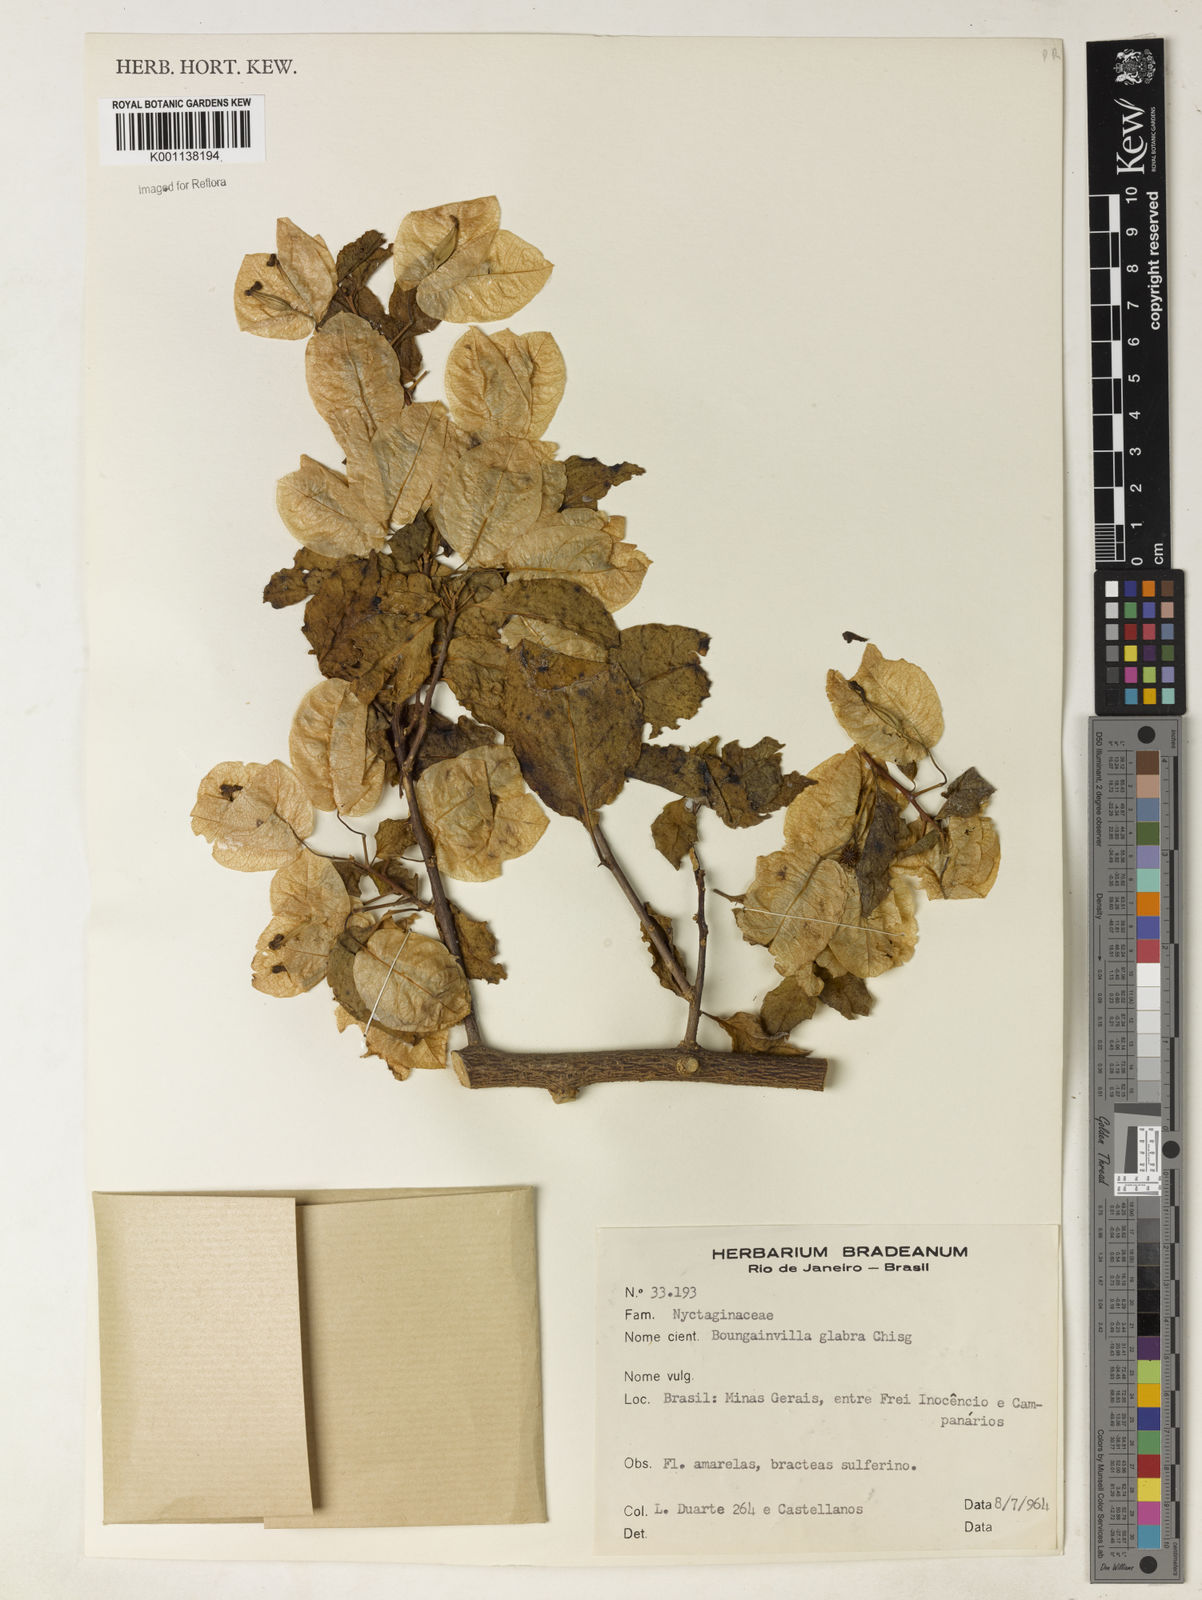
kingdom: Plantae
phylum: Tracheophyta
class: Magnoliopsida
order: Caryophyllales
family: Nyctaginaceae
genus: Bougainvillea
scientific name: Bougainvillea glabra
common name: Paperflower
